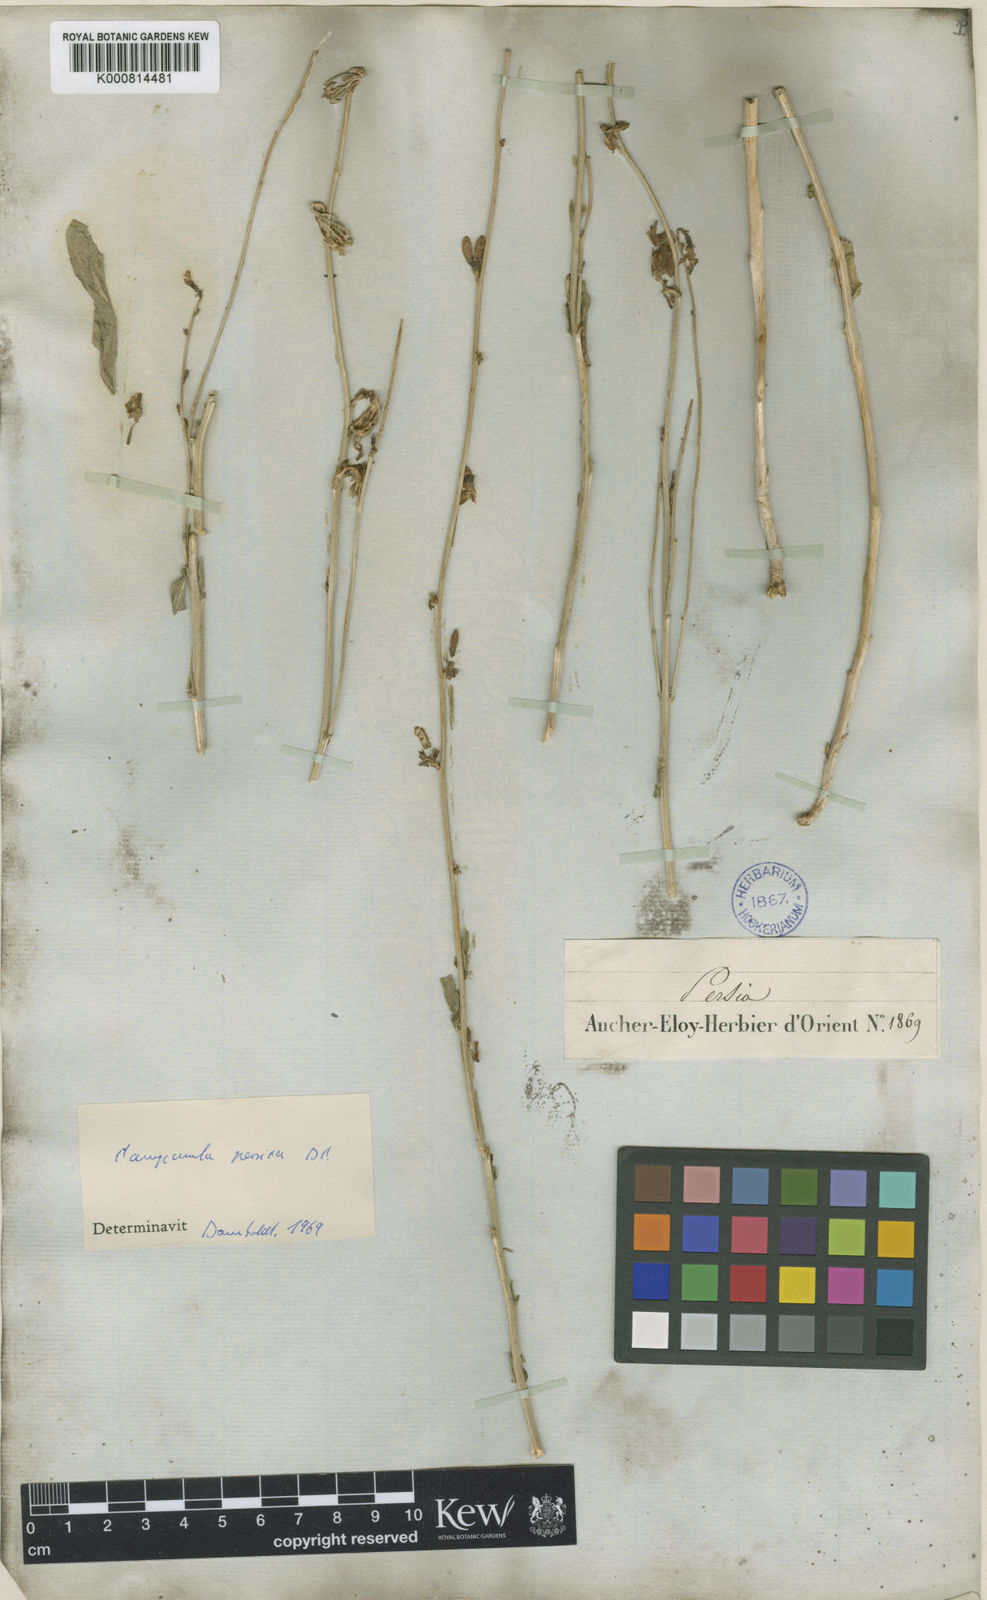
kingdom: Plantae
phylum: Tracheophyta
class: Magnoliopsida
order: Asterales
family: Campanulaceae
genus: Asyneuma
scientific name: Asyneuma persicum
